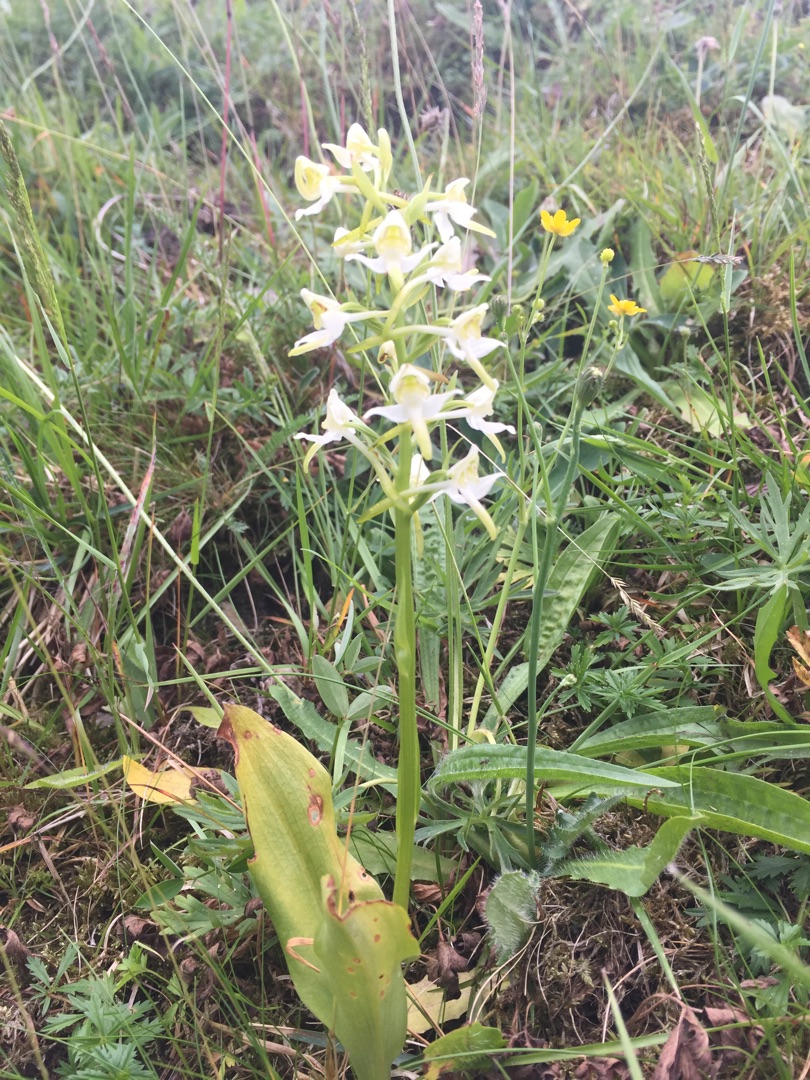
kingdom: Plantae
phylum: Tracheophyta
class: Liliopsida
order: Asparagales
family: Orchidaceae
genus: Platanthera
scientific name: Platanthera chlorantha
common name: Skov-gøgelilje
